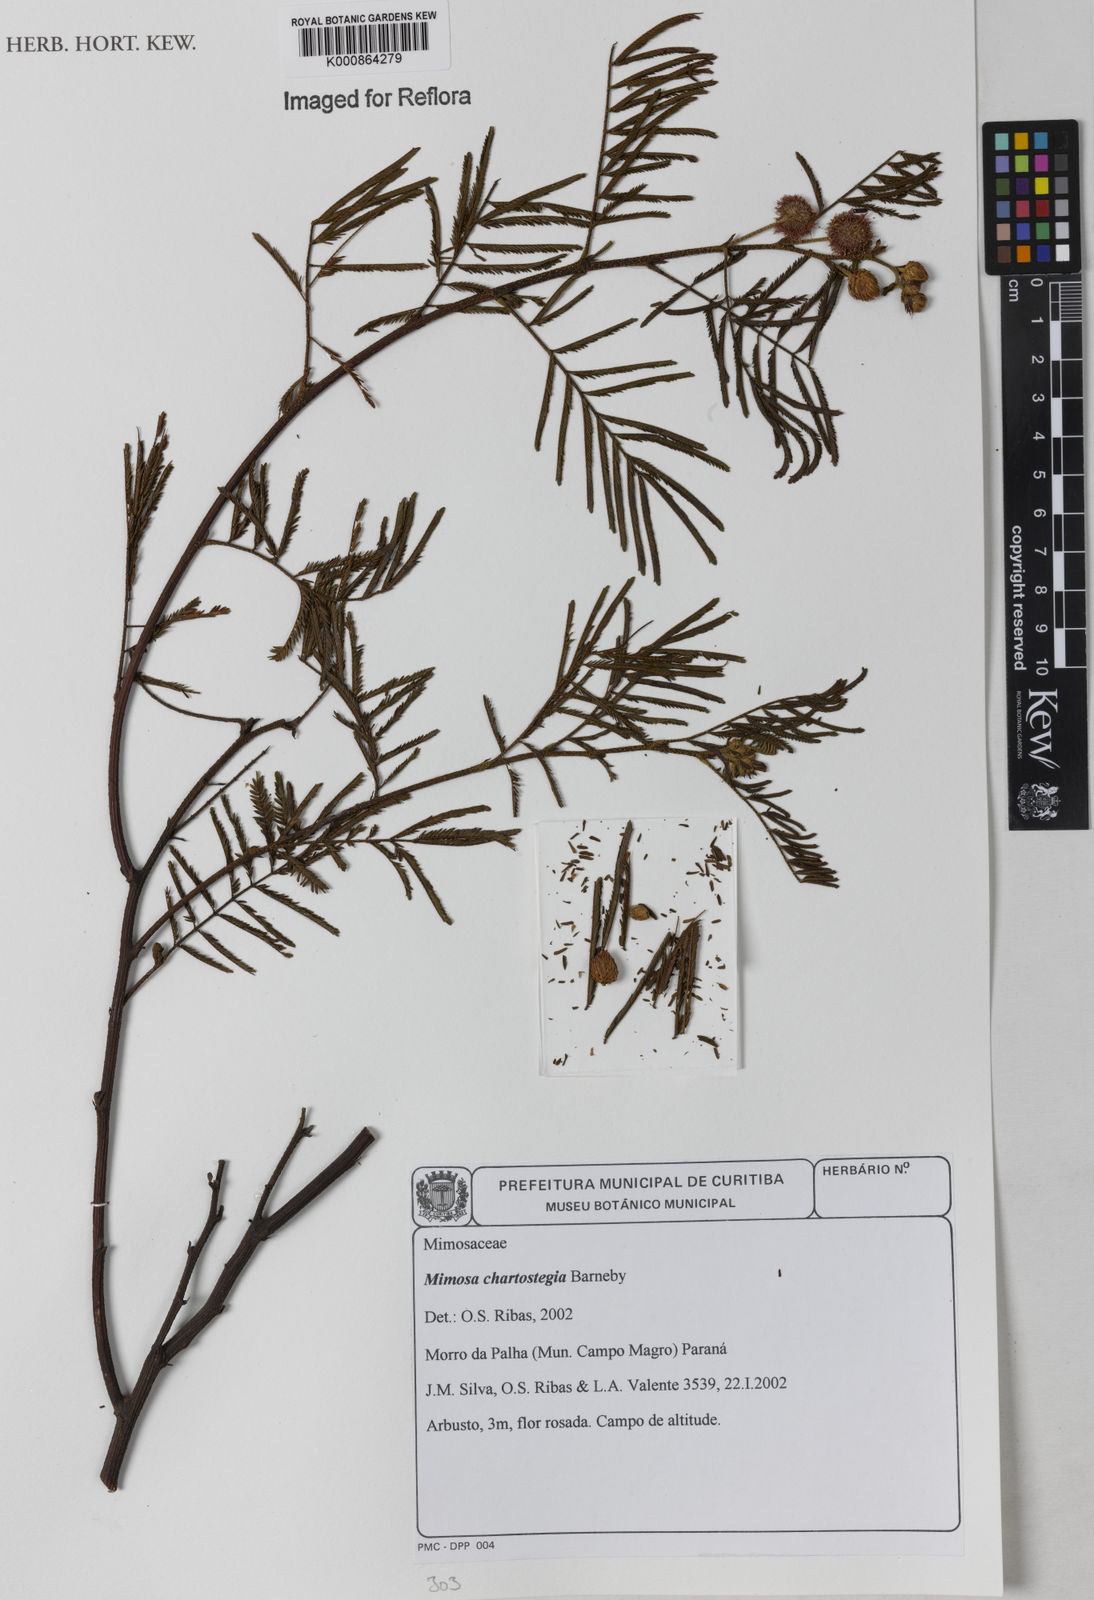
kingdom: Plantae
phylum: Tracheophyta
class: Magnoliopsida
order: Fabales
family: Fabaceae
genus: Mimosa
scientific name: Mimosa chartostegia
